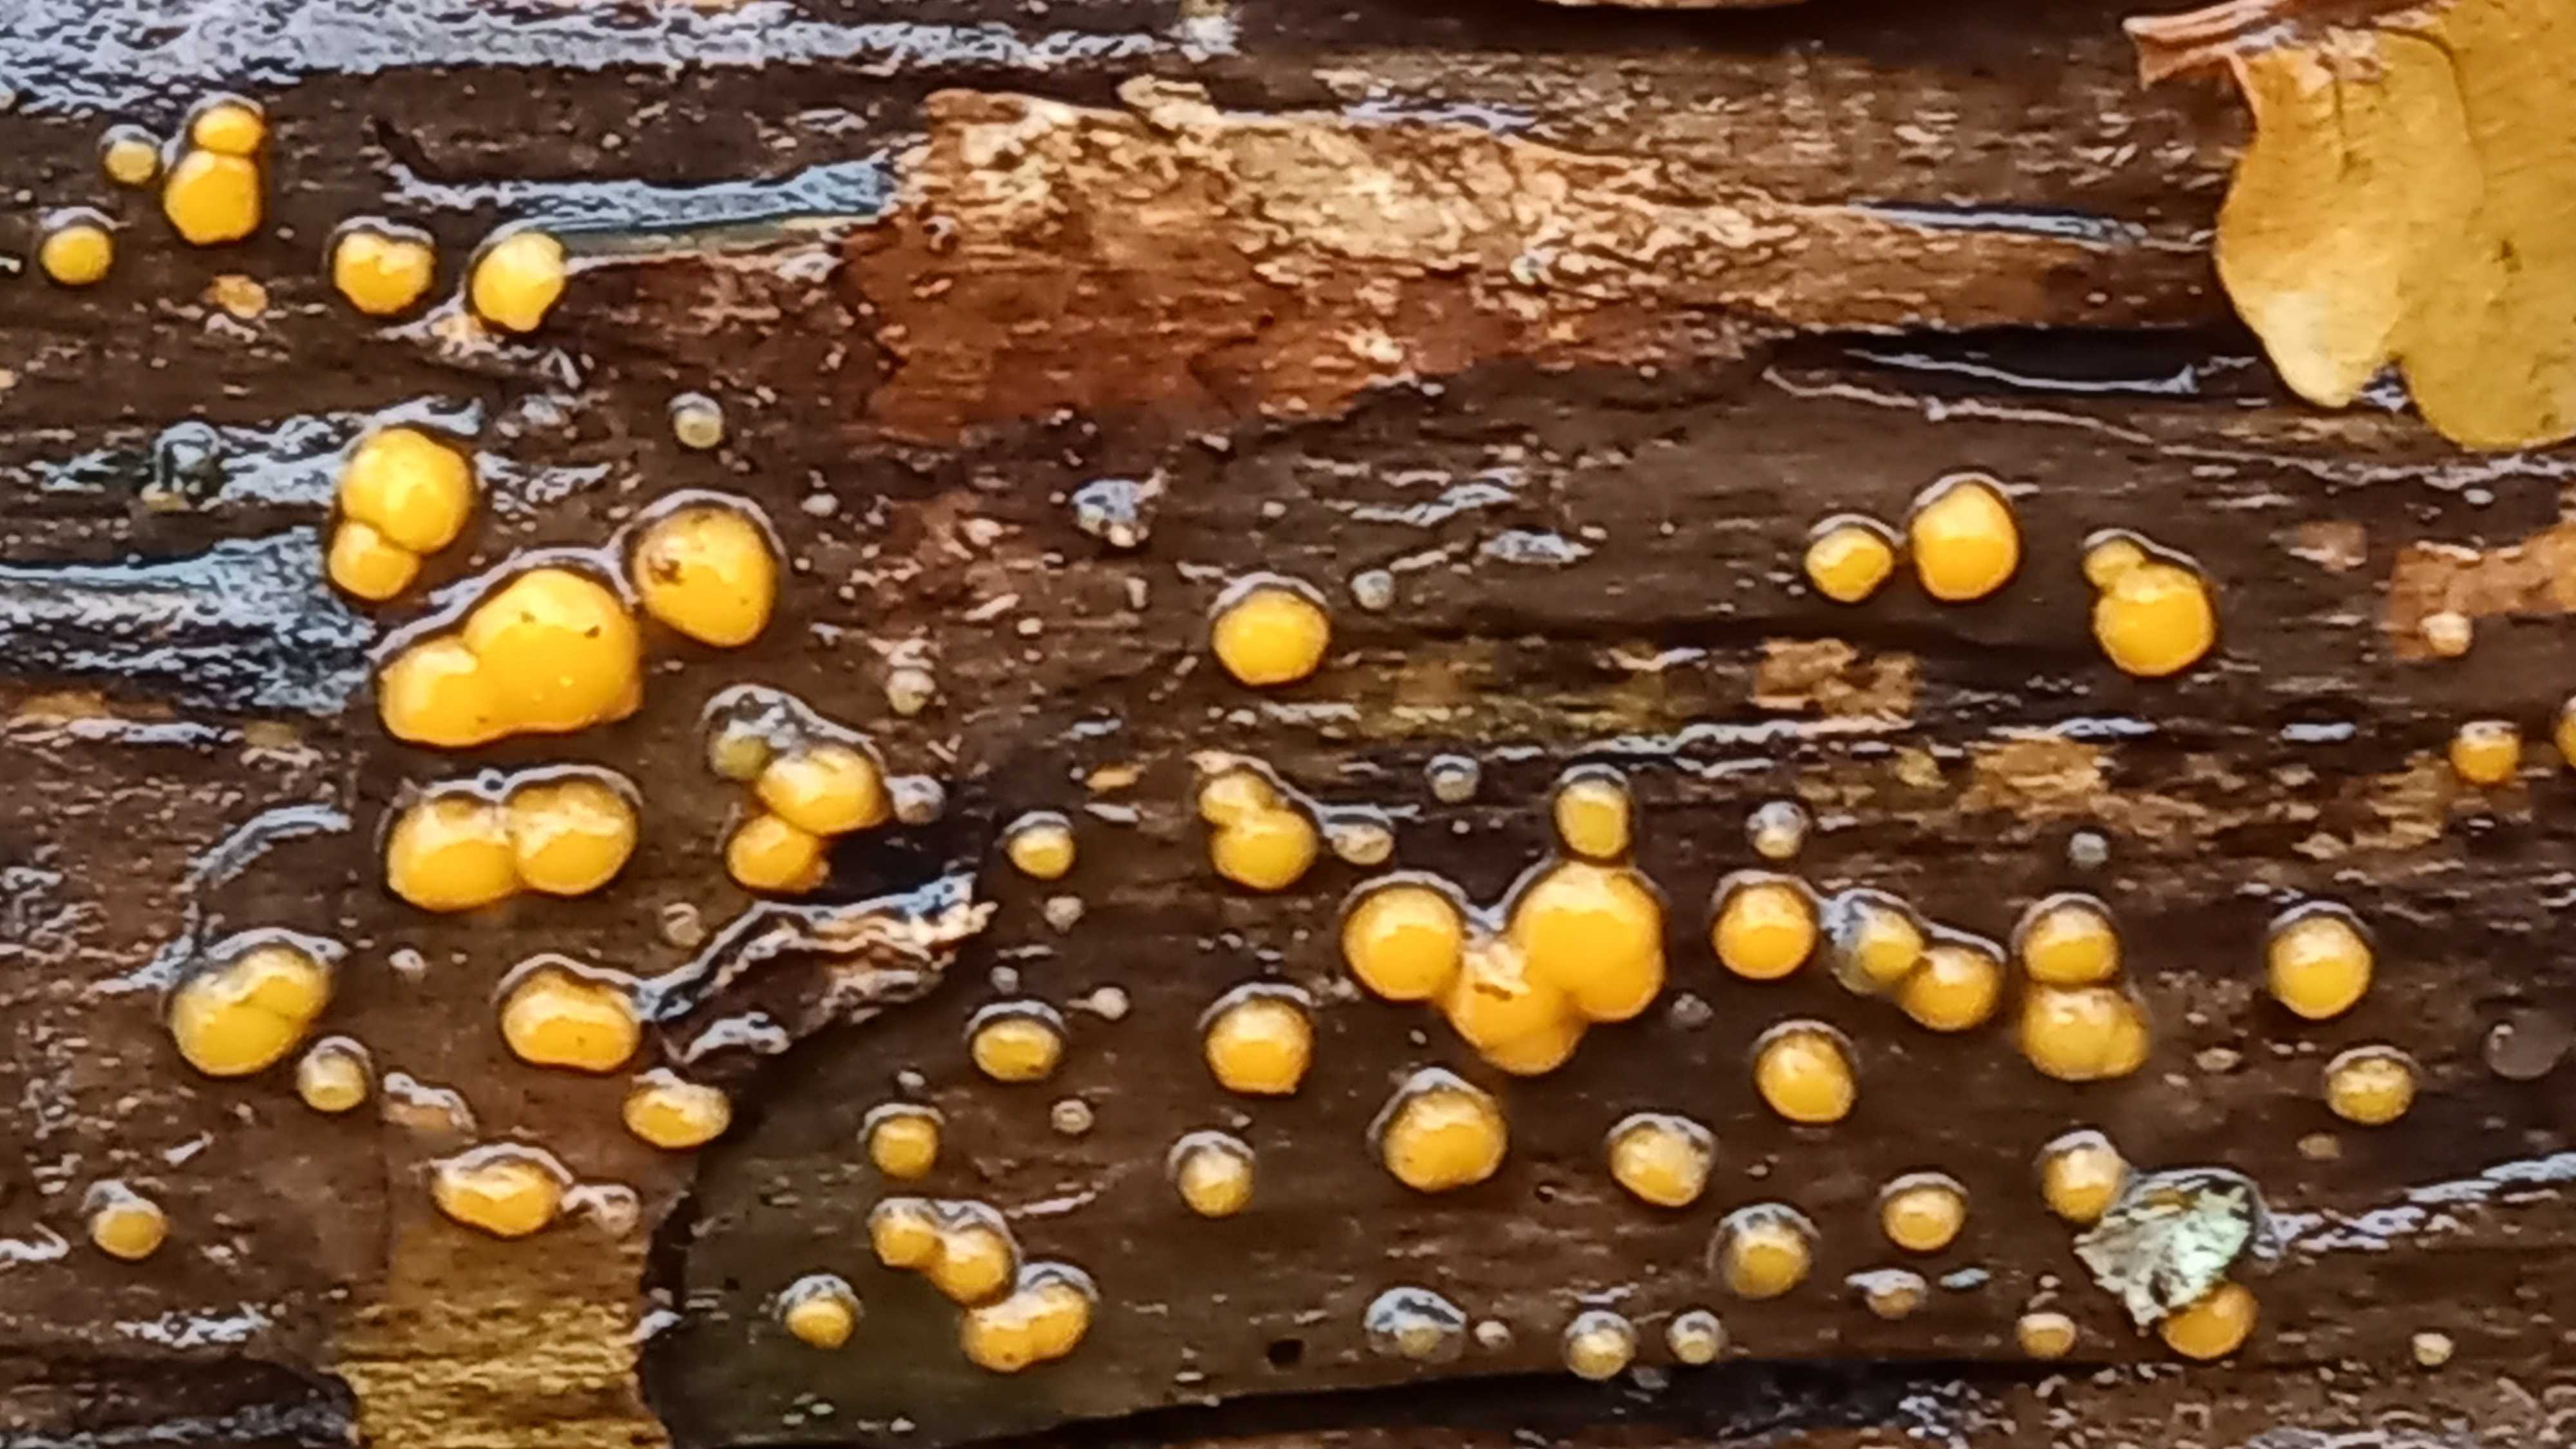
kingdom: Fungi
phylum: Basidiomycota
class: Dacrymycetes
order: Dacrymycetales
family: Dacrymycetaceae
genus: Dacrymyces
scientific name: Dacrymyces stillatus
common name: almindelig tåresvamp
